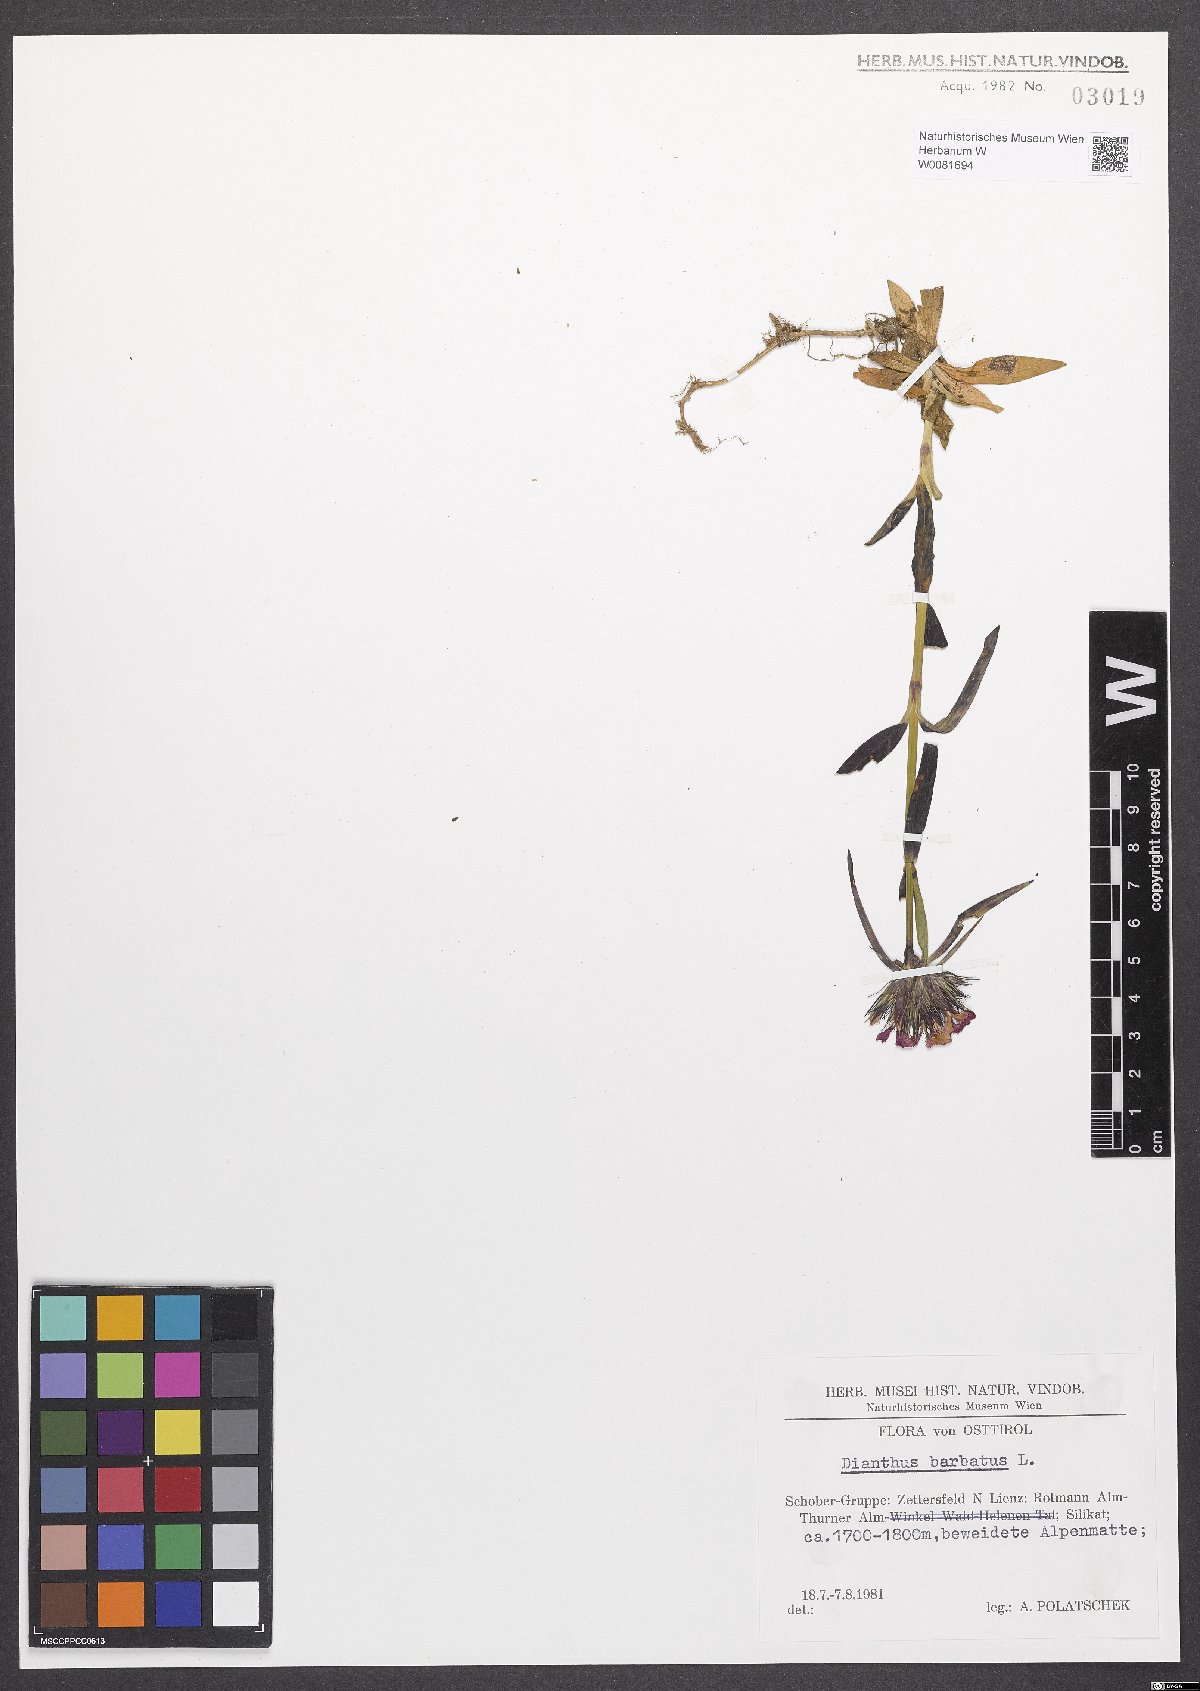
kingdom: Plantae
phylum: Tracheophyta
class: Magnoliopsida
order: Caryophyllales
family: Caryophyllaceae
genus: Dianthus
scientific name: Dianthus barbatus
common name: Sweet-william
